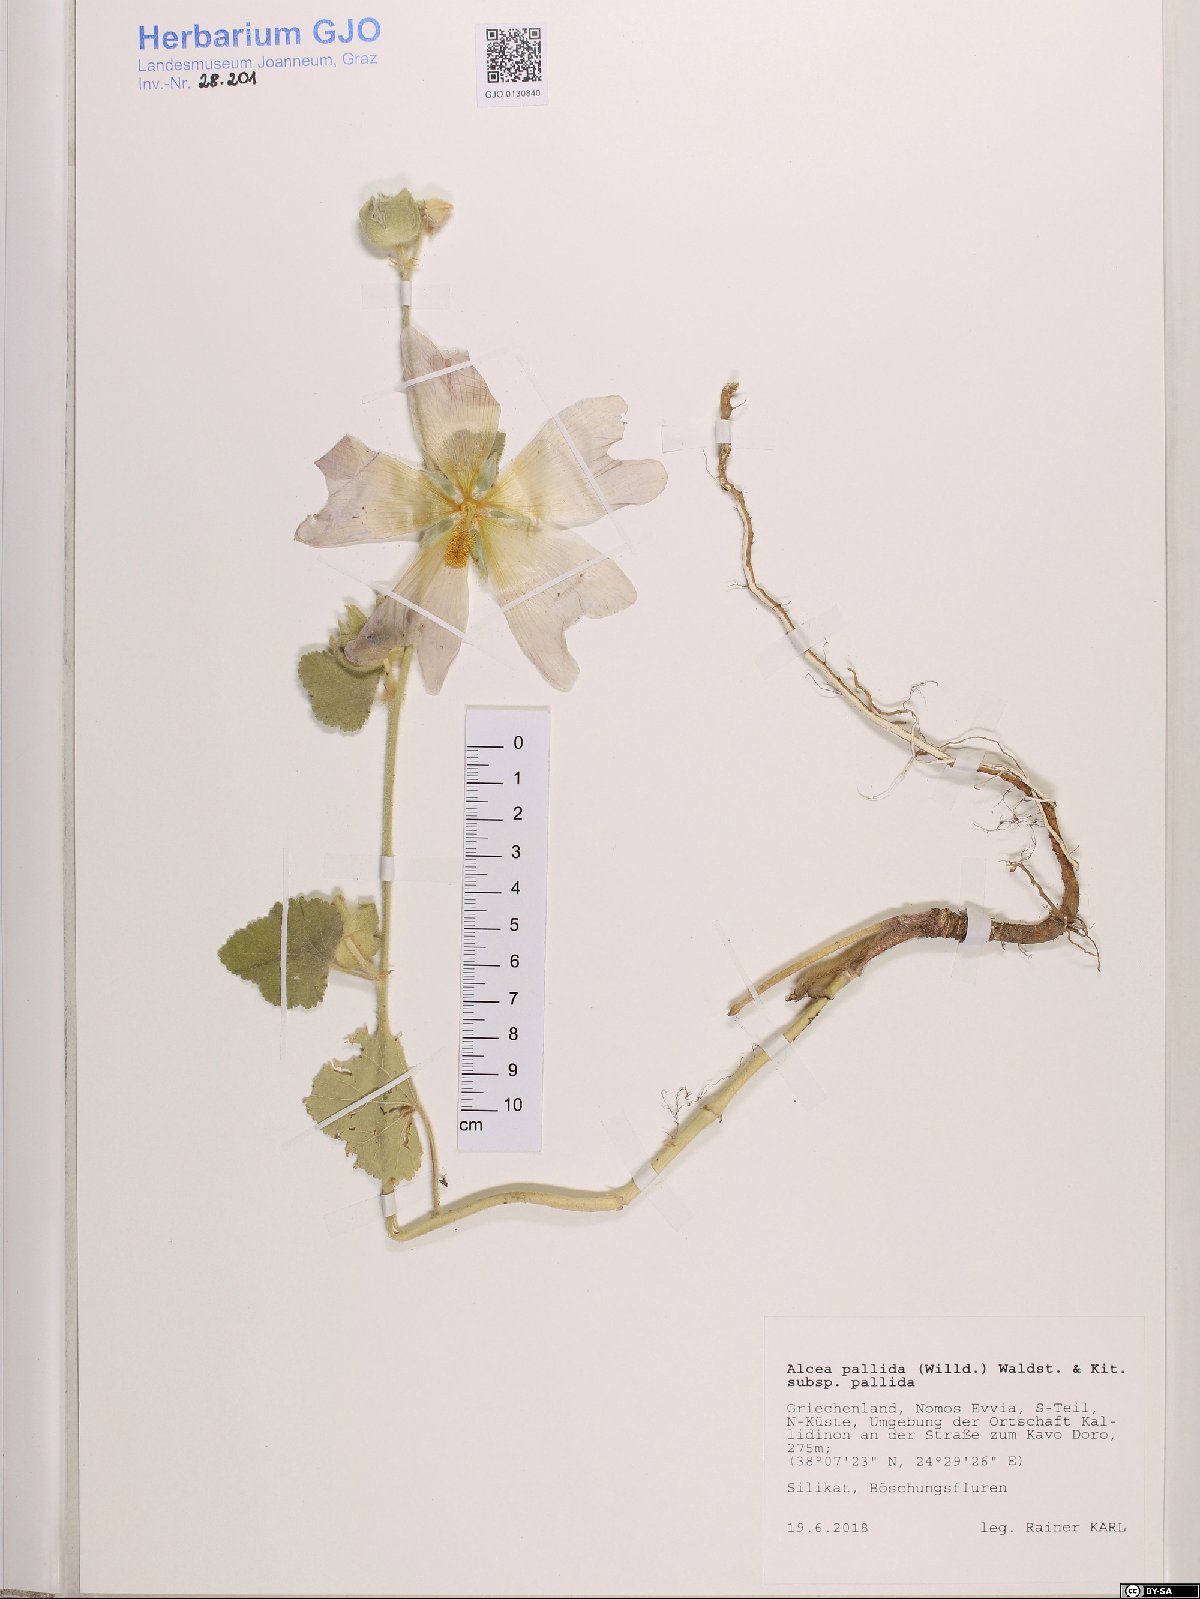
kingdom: Plantae
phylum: Tracheophyta
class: Magnoliopsida
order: Malvales
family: Malvaceae
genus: Alcea
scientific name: Alcea pallida
